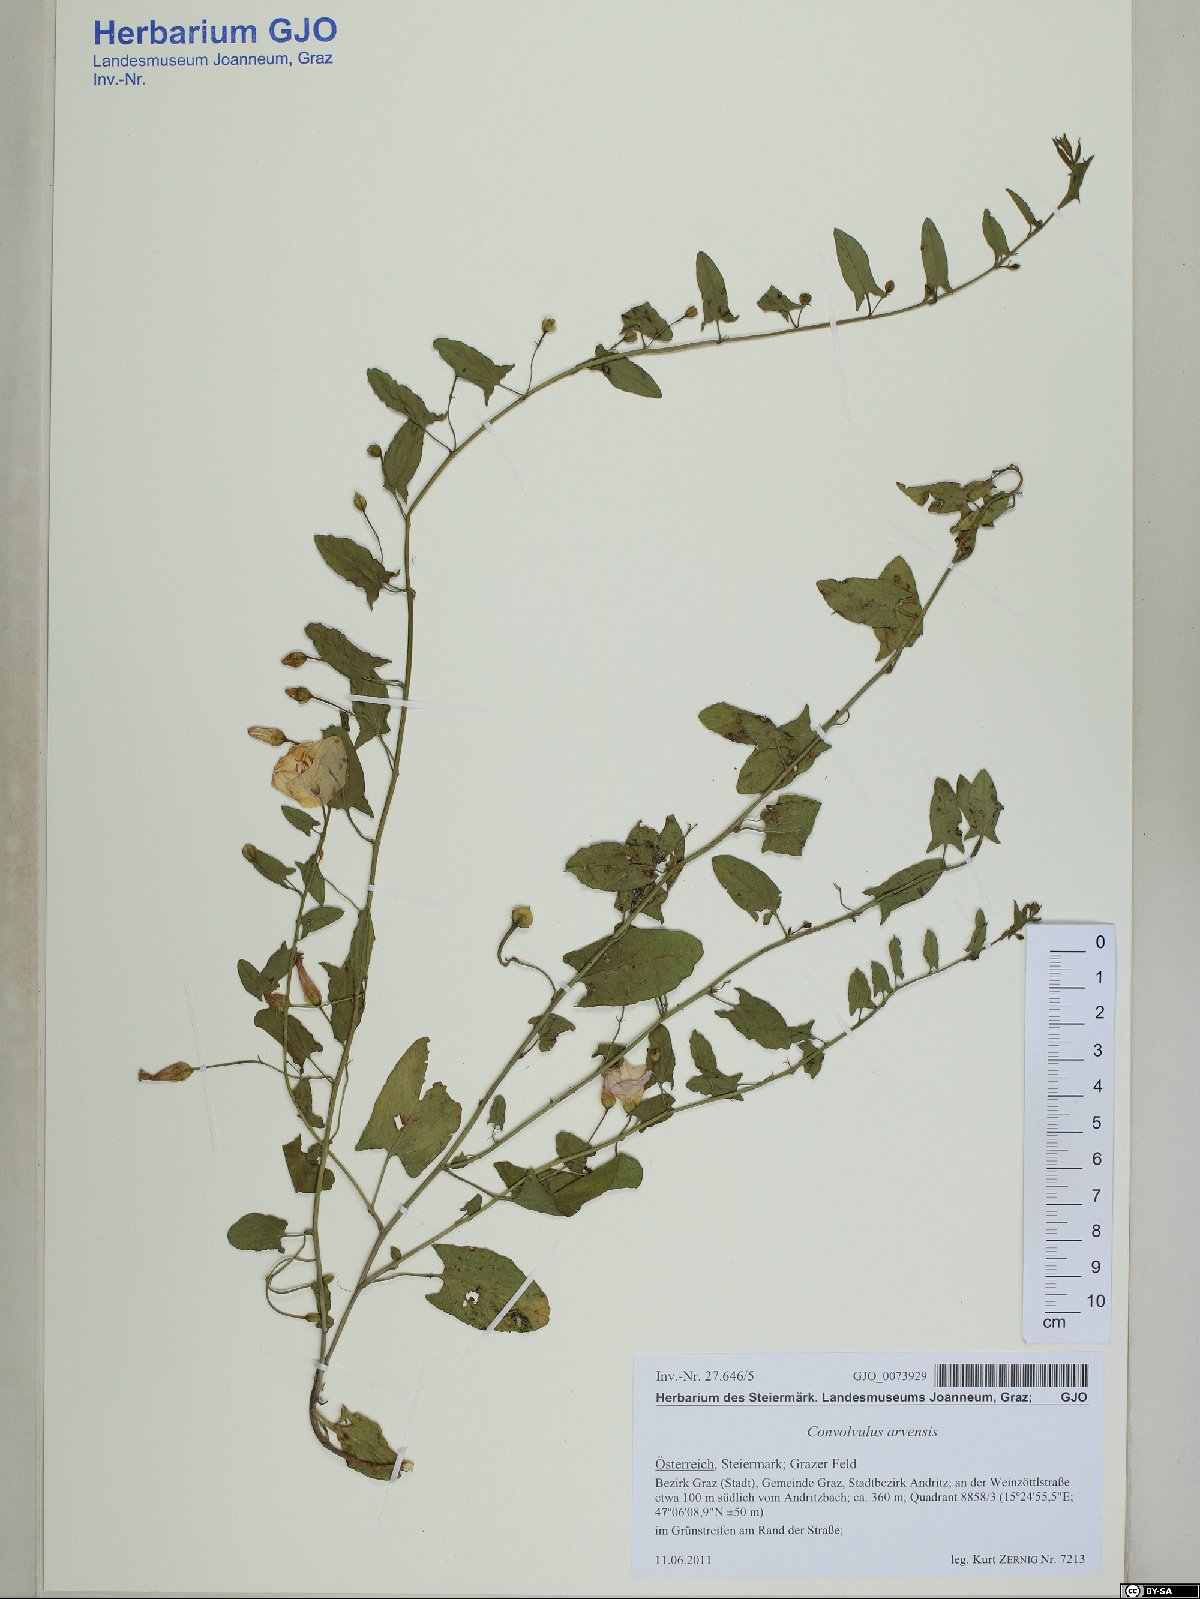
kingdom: Plantae
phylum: Tracheophyta
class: Magnoliopsida
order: Solanales
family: Convolvulaceae
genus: Convolvulus
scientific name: Convolvulus arvensis
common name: Field bindweed
